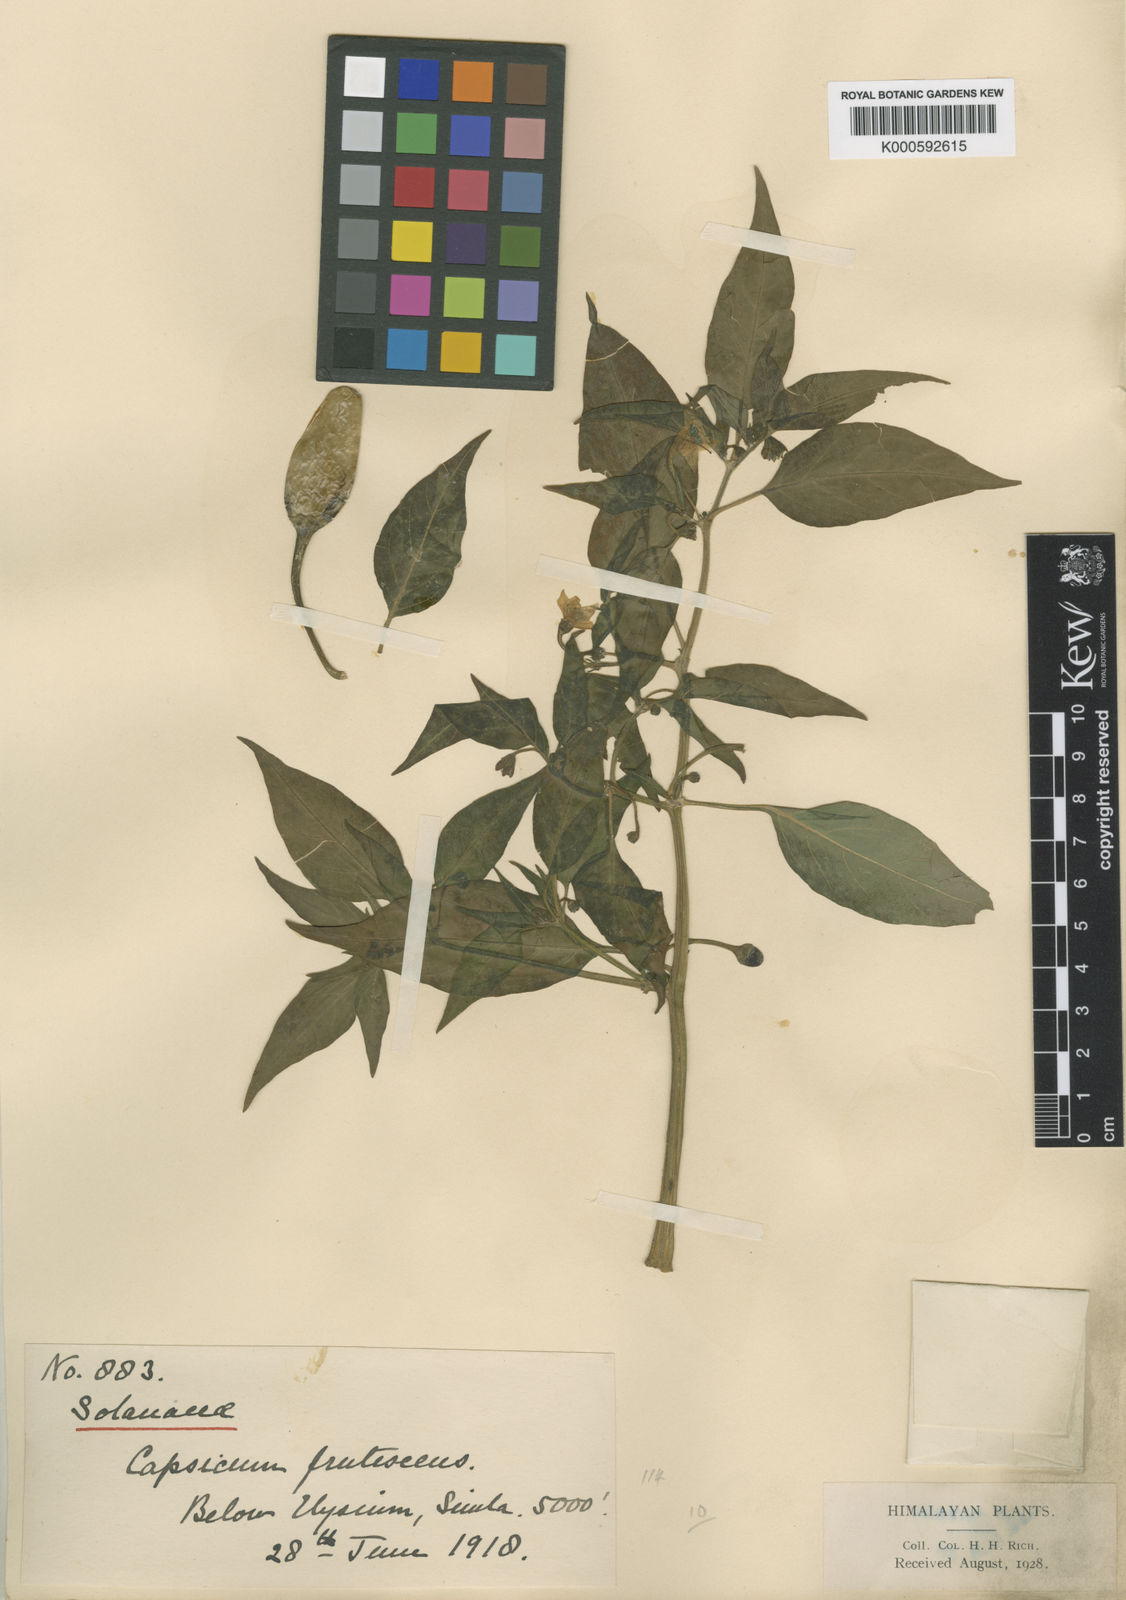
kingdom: Plantae
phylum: Tracheophyta
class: Magnoliopsida
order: Solanales
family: Solanaceae
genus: Capsicum
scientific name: Capsicum frutescens
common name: Bird pepper
